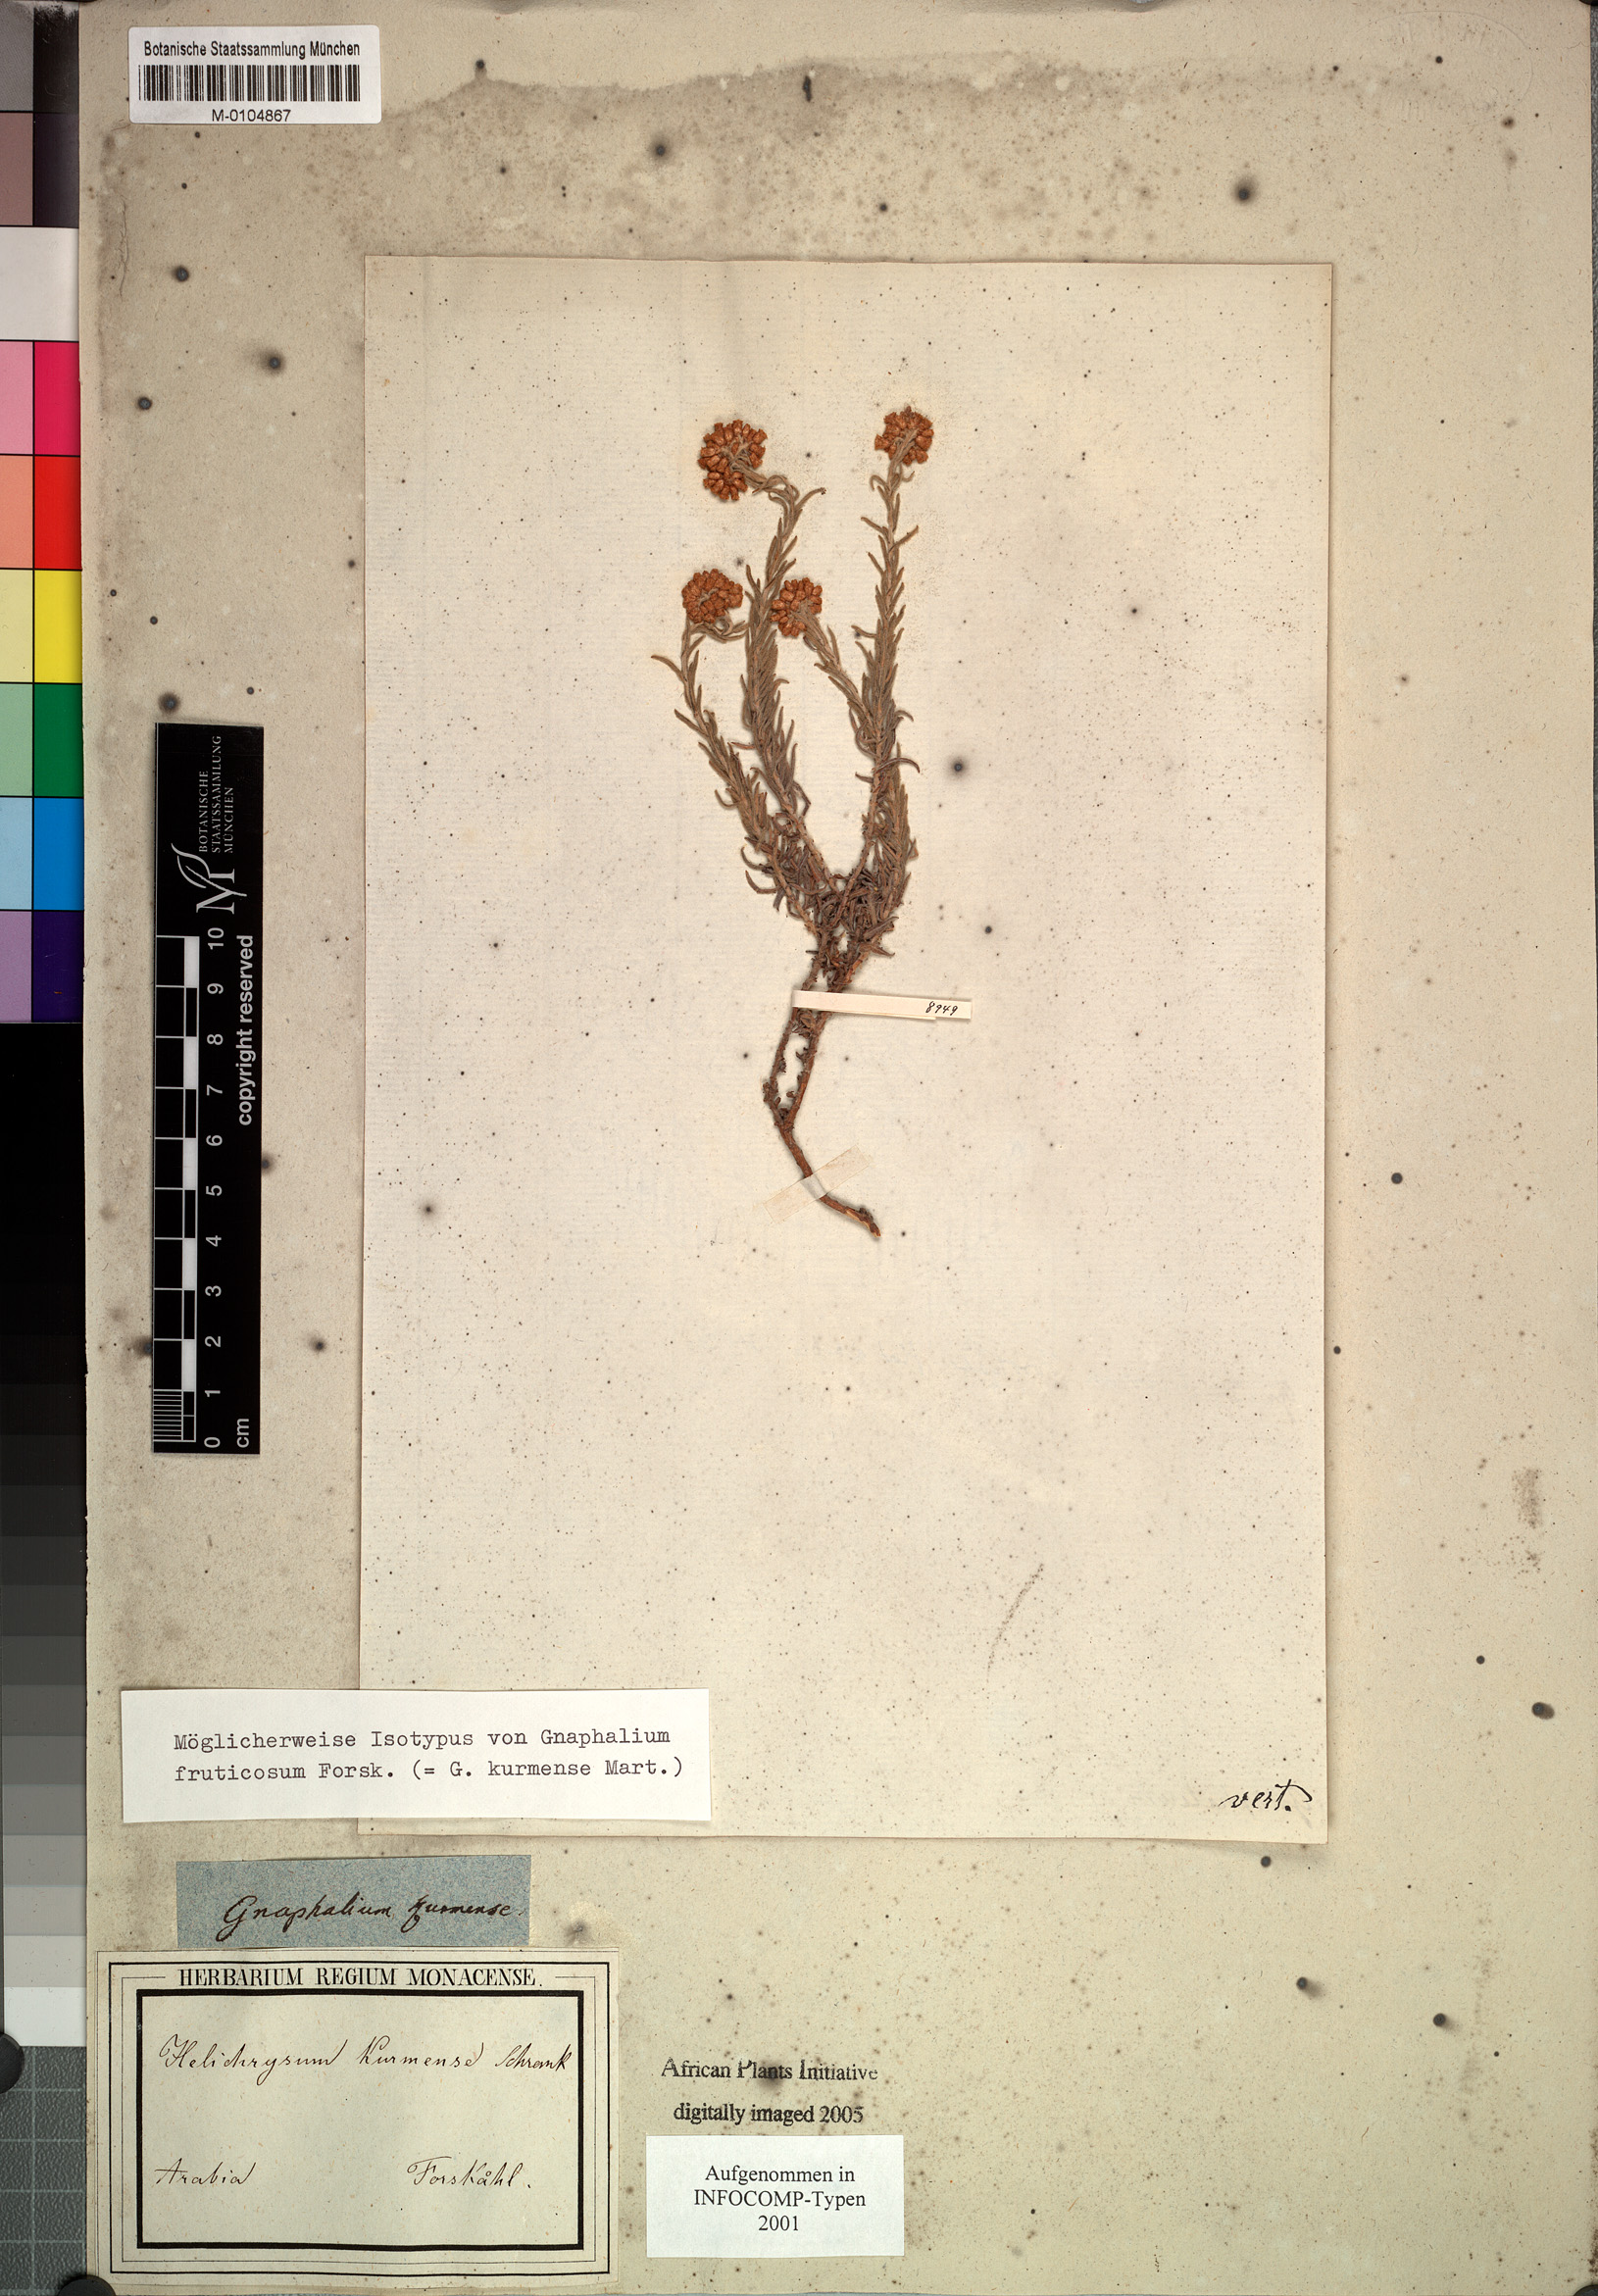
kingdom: Plantae
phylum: Tracheophyta
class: Magnoliopsida
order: Asterales
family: Asteraceae
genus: Helichrysum
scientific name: Helichrysum forskahlii
